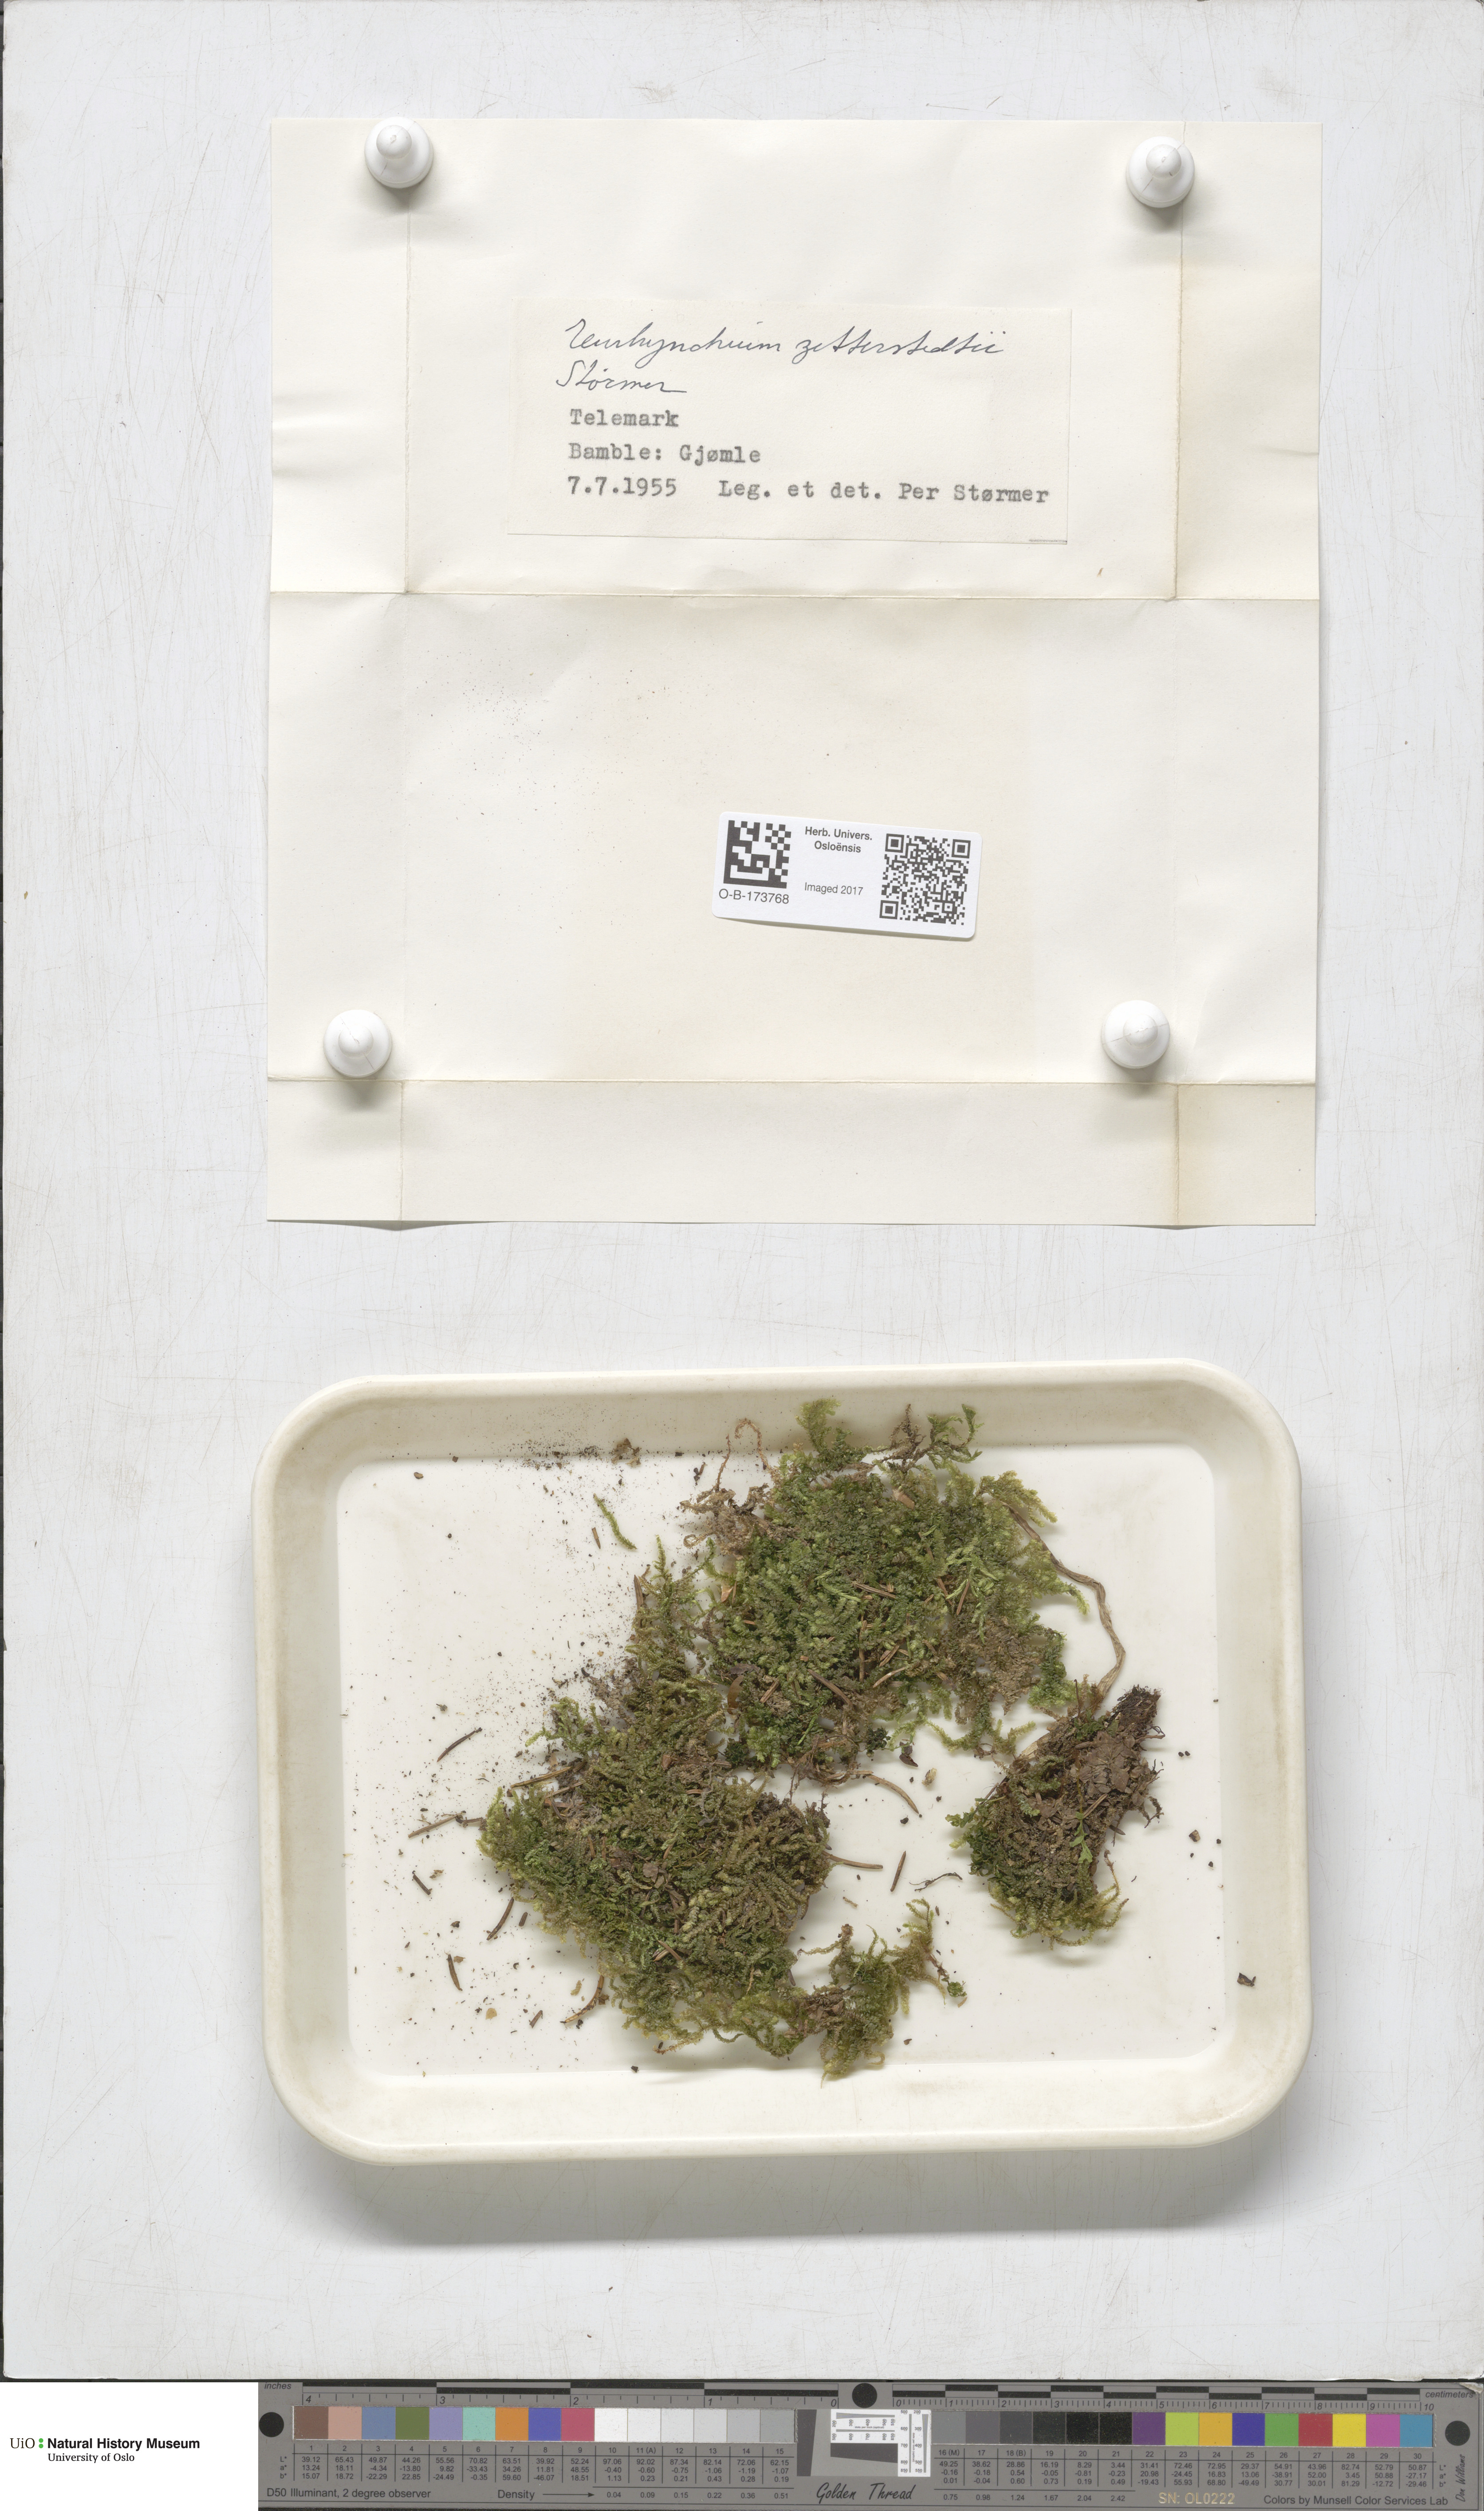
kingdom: Plantae
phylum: Bryophyta
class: Bryopsida
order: Hypnales
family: Brachytheciaceae
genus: Eurhynchium
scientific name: Eurhynchium angustirete
